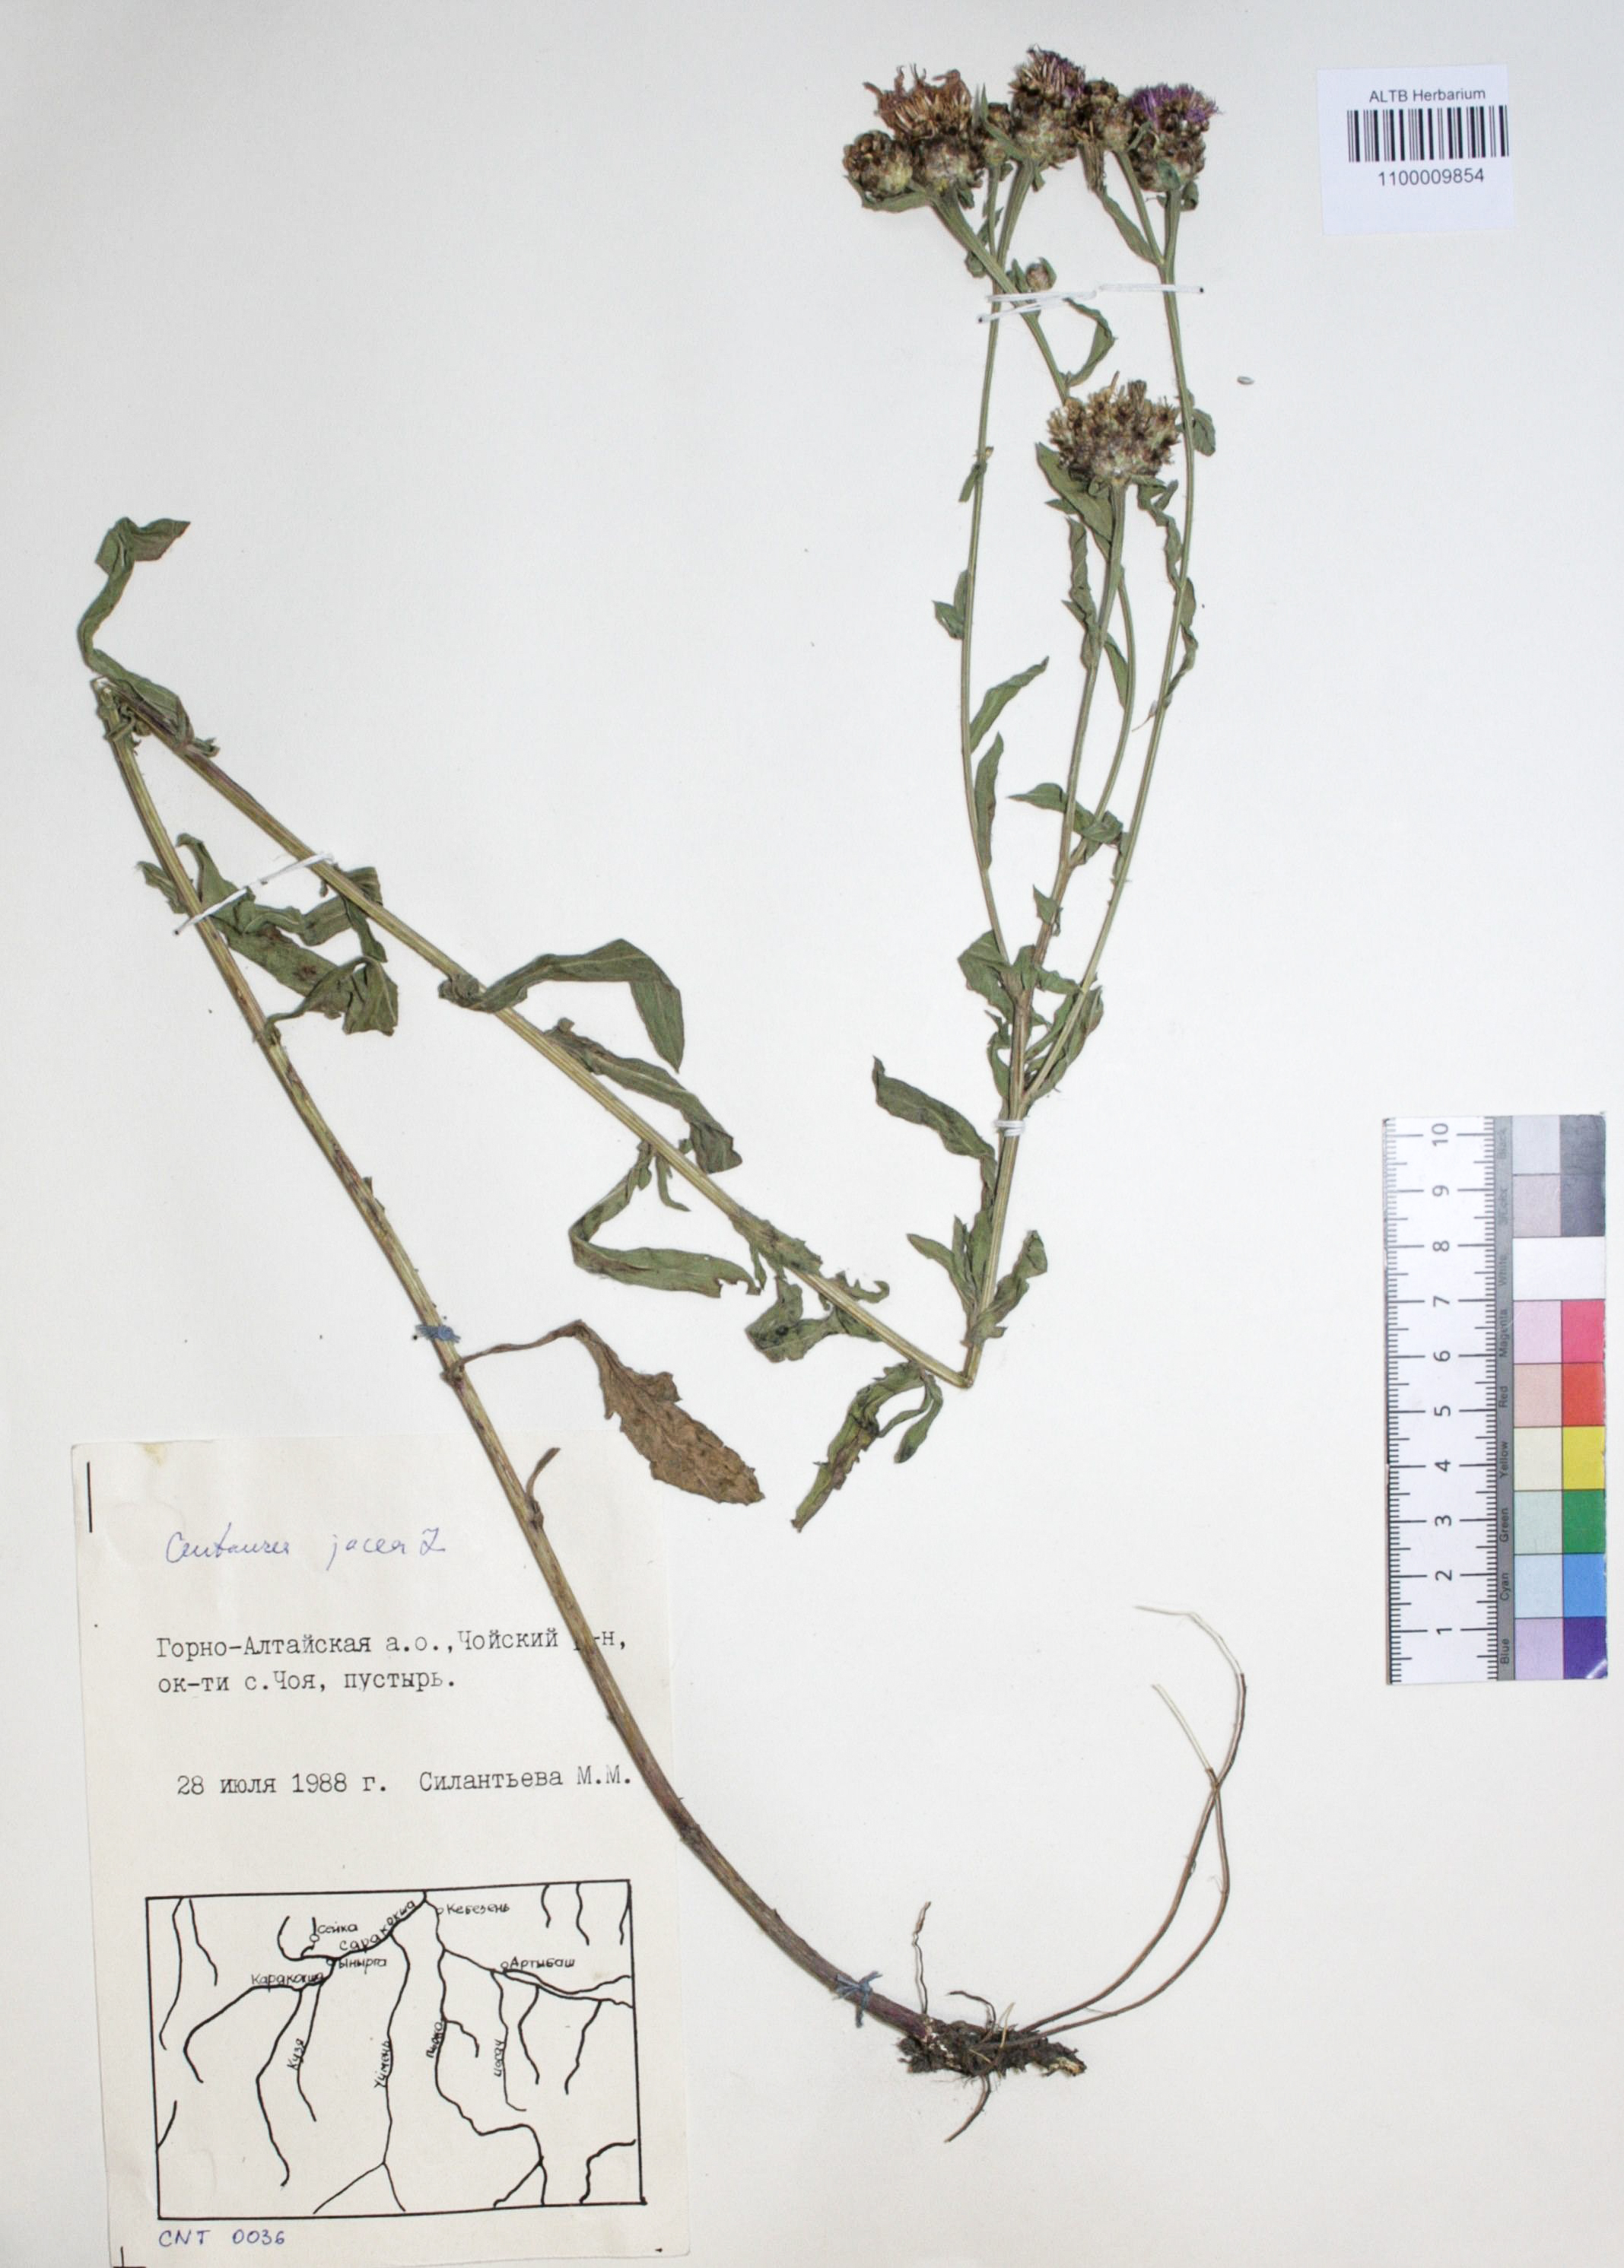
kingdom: Plantae
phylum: Tracheophyta
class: Magnoliopsida
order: Asterales
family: Asteraceae
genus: Centaurea
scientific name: Centaurea jacea
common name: Brown knapweed
